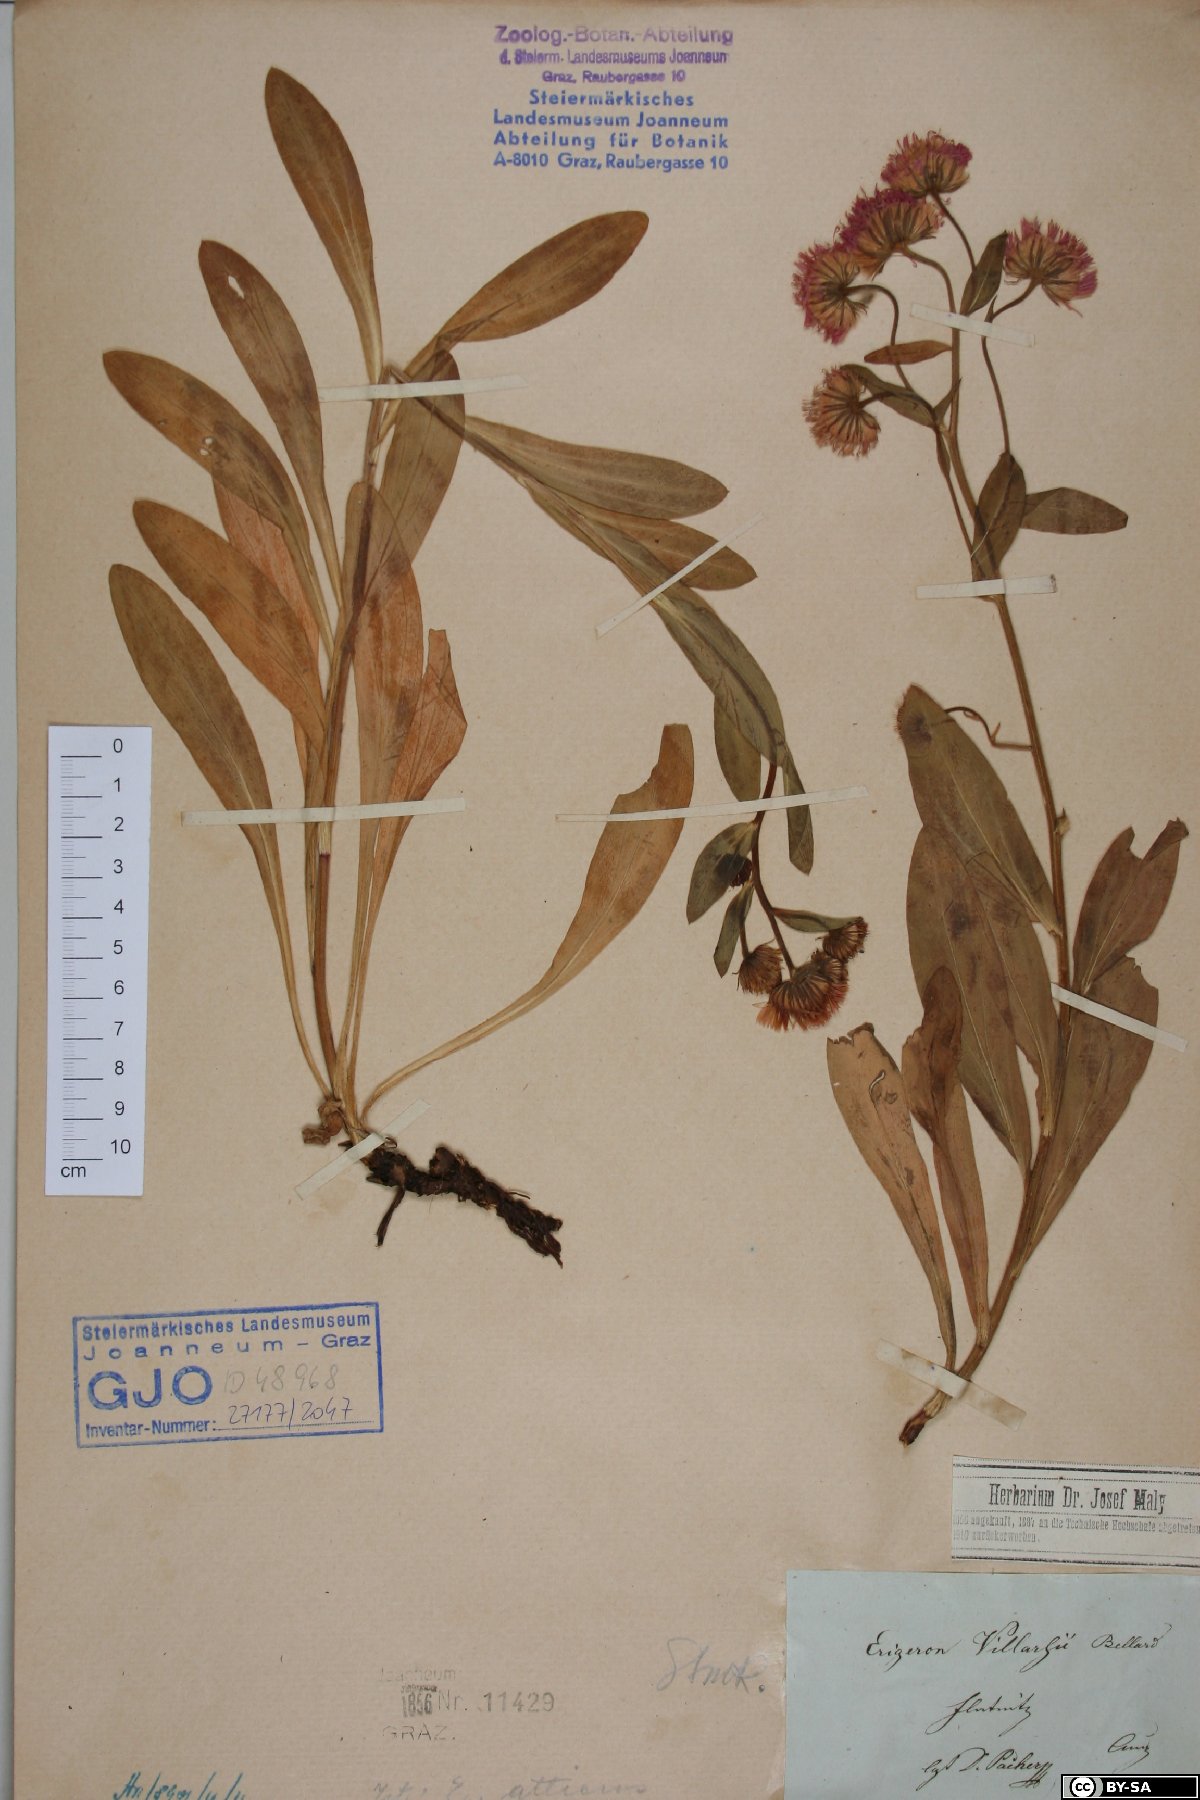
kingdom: Plantae
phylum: Tracheophyta
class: Magnoliopsida
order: Asterales
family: Asteraceae
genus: Erigeron
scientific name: Erigeron atticus
